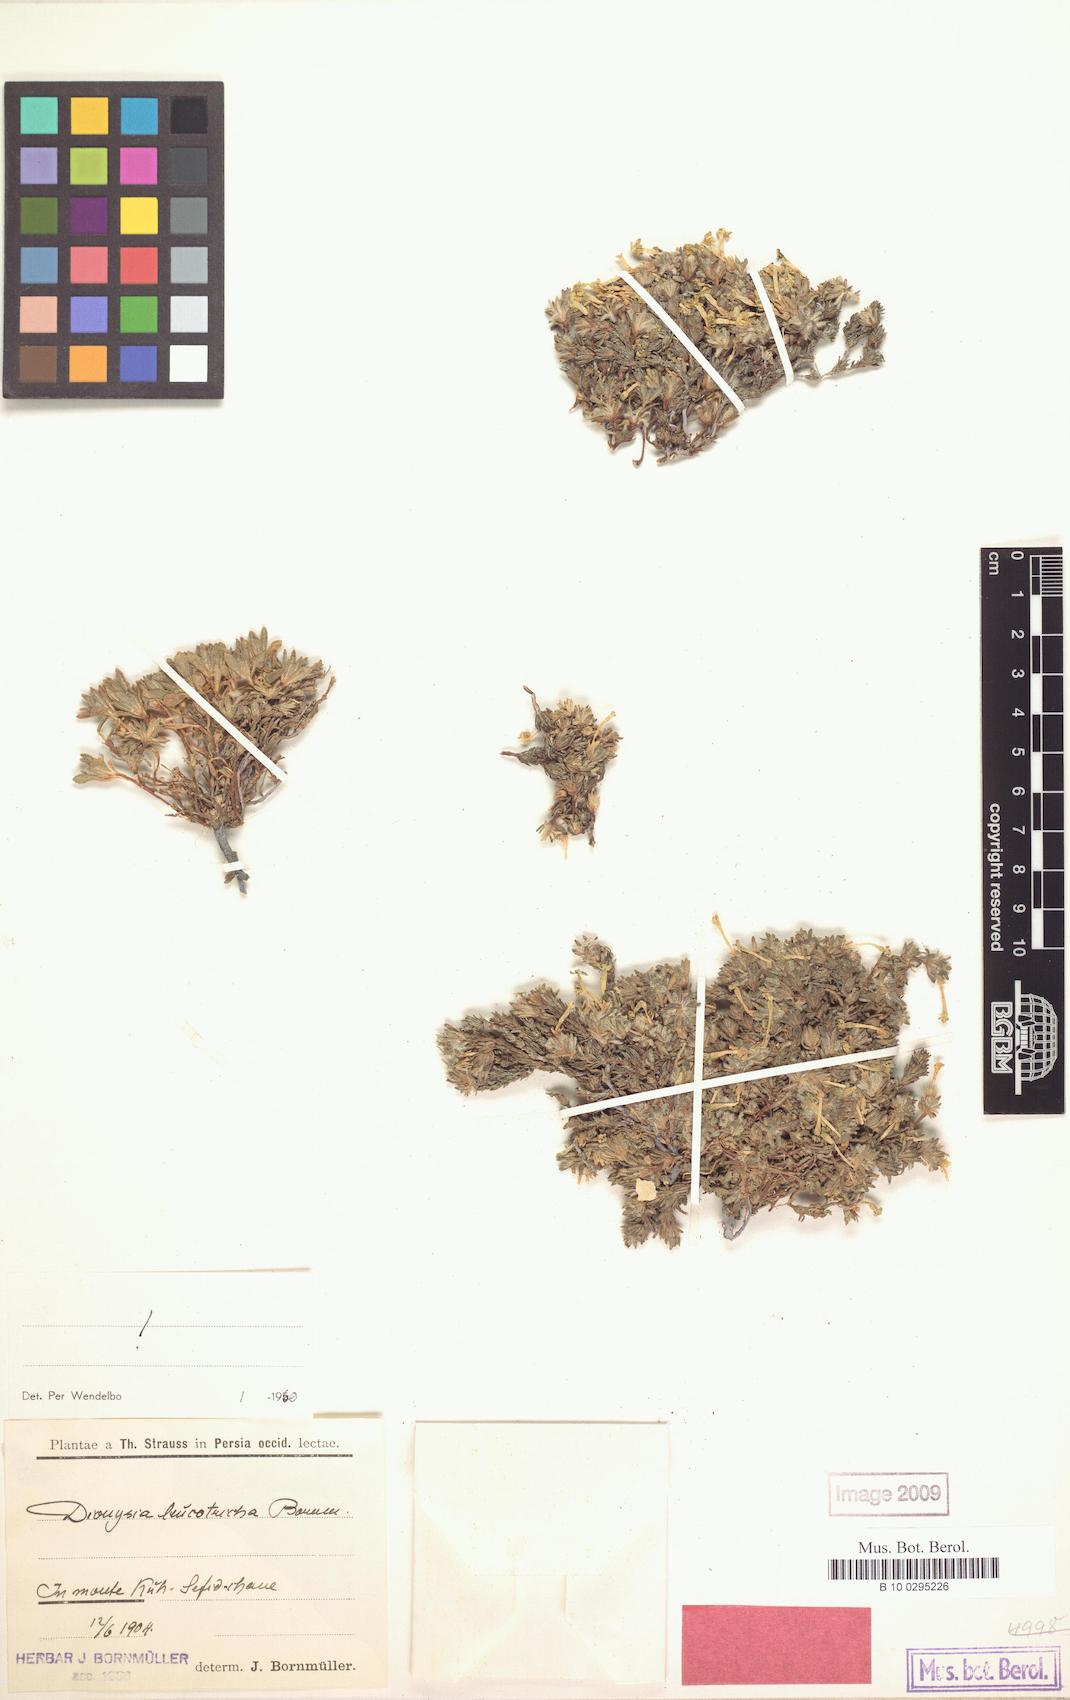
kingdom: Plantae
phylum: Tracheophyta
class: Magnoliopsida
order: Ericales
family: Primulaceae
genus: Dionysia
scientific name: Dionysia leucotricha
